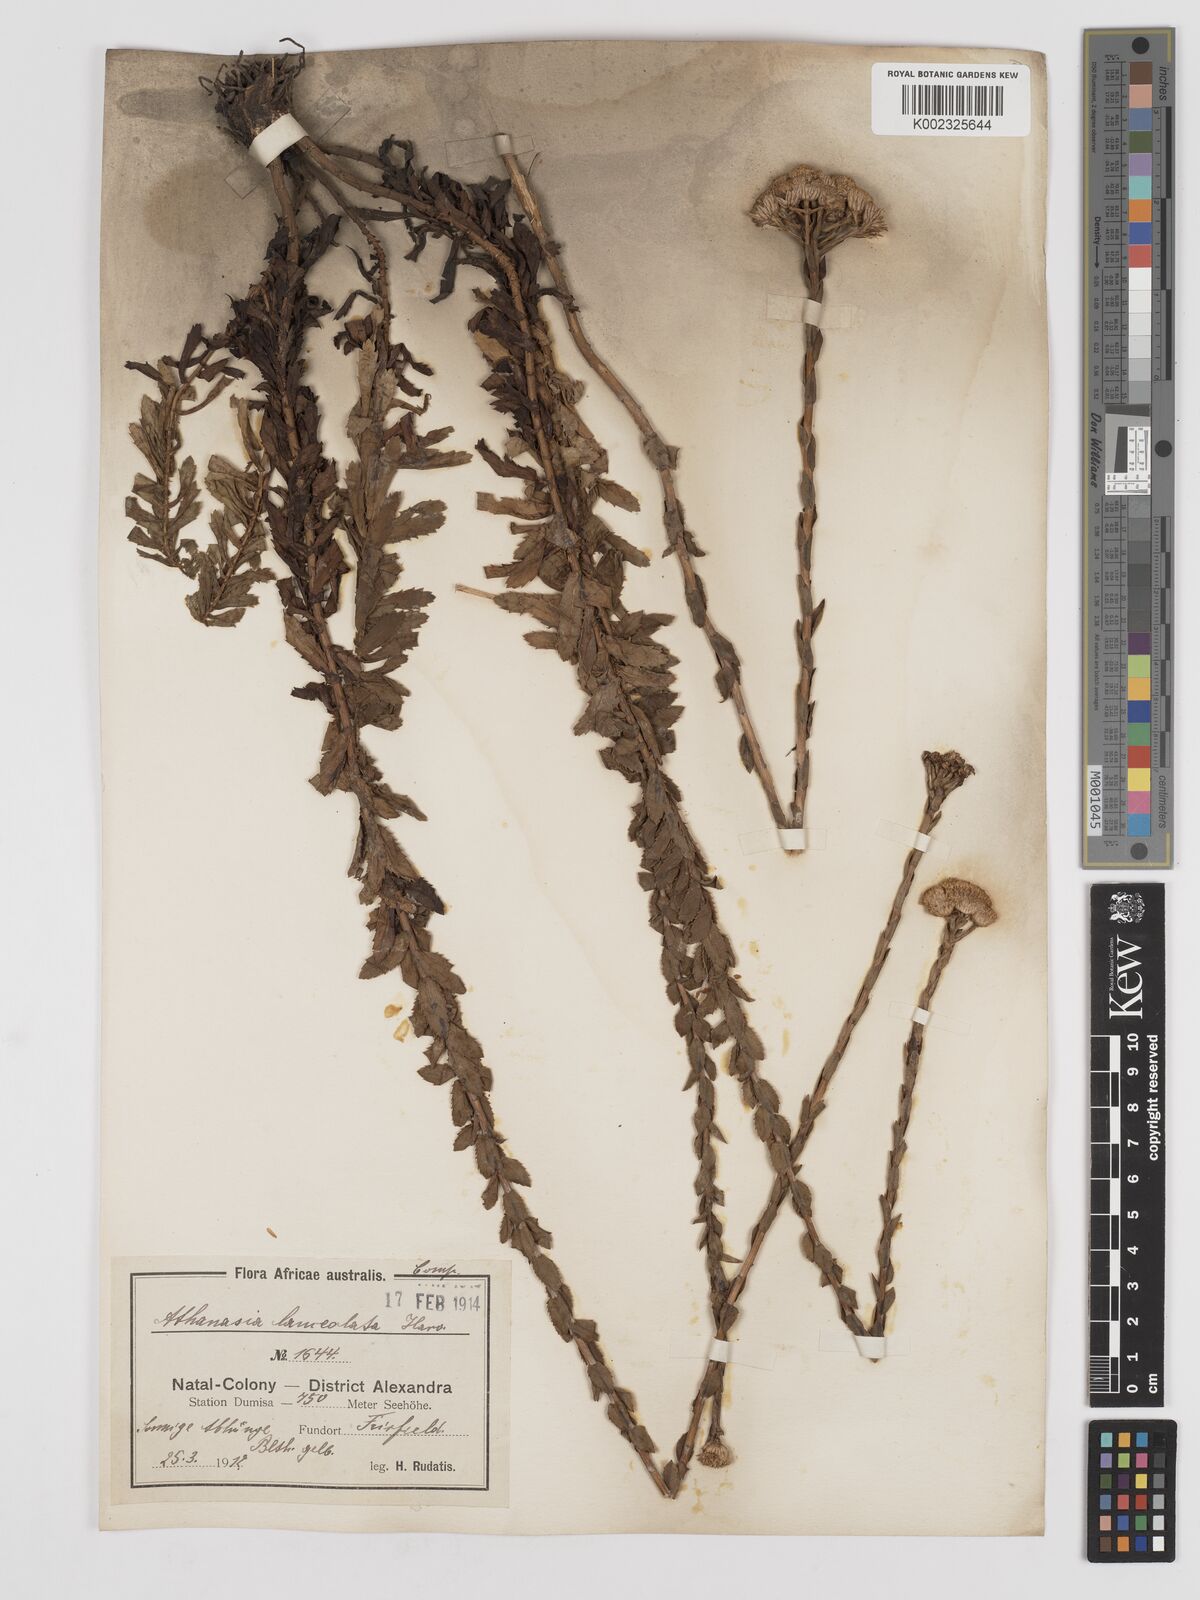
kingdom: Plantae
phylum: Tracheophyta
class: Magnoliopsida
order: Asterales
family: Asteraceae
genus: Inulanthera
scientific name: Inulanthera leucoclada
